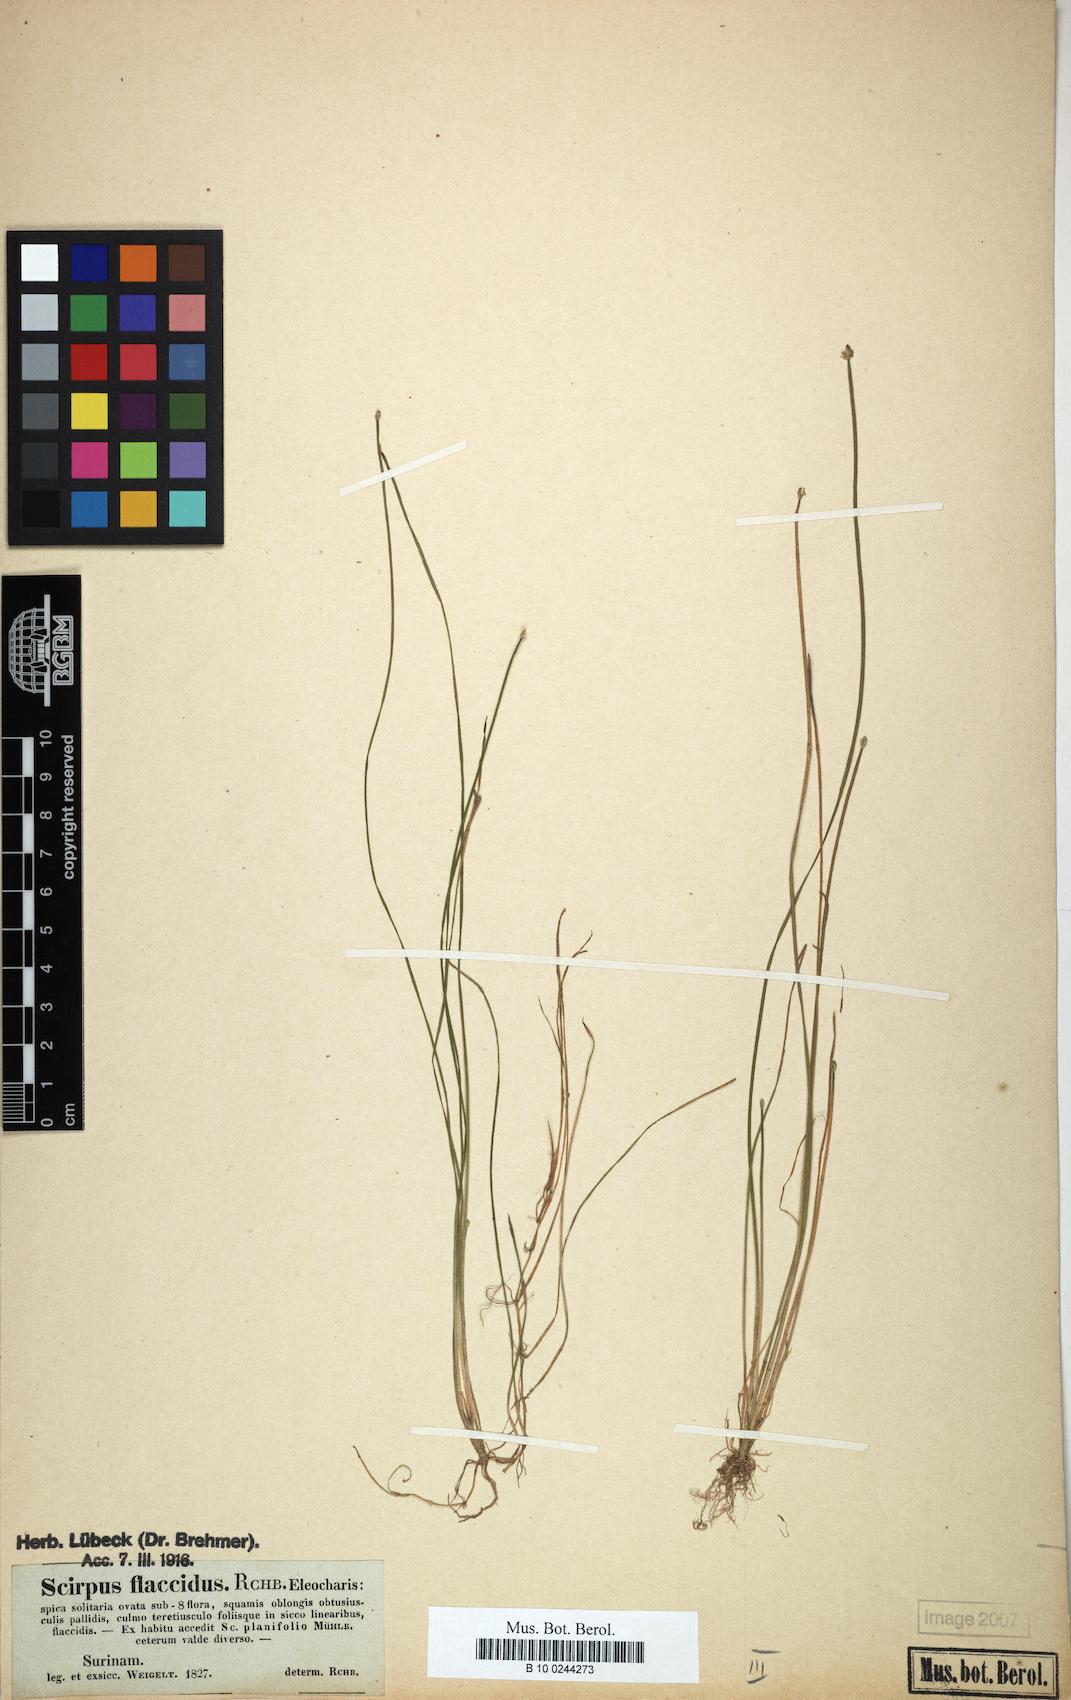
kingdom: Plantae
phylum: Tracheophyta
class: Liliopsida
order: Poales
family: Cyperaceae
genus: Eleocharis
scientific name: Eleocharis flavescens
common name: Yellow spikerush
